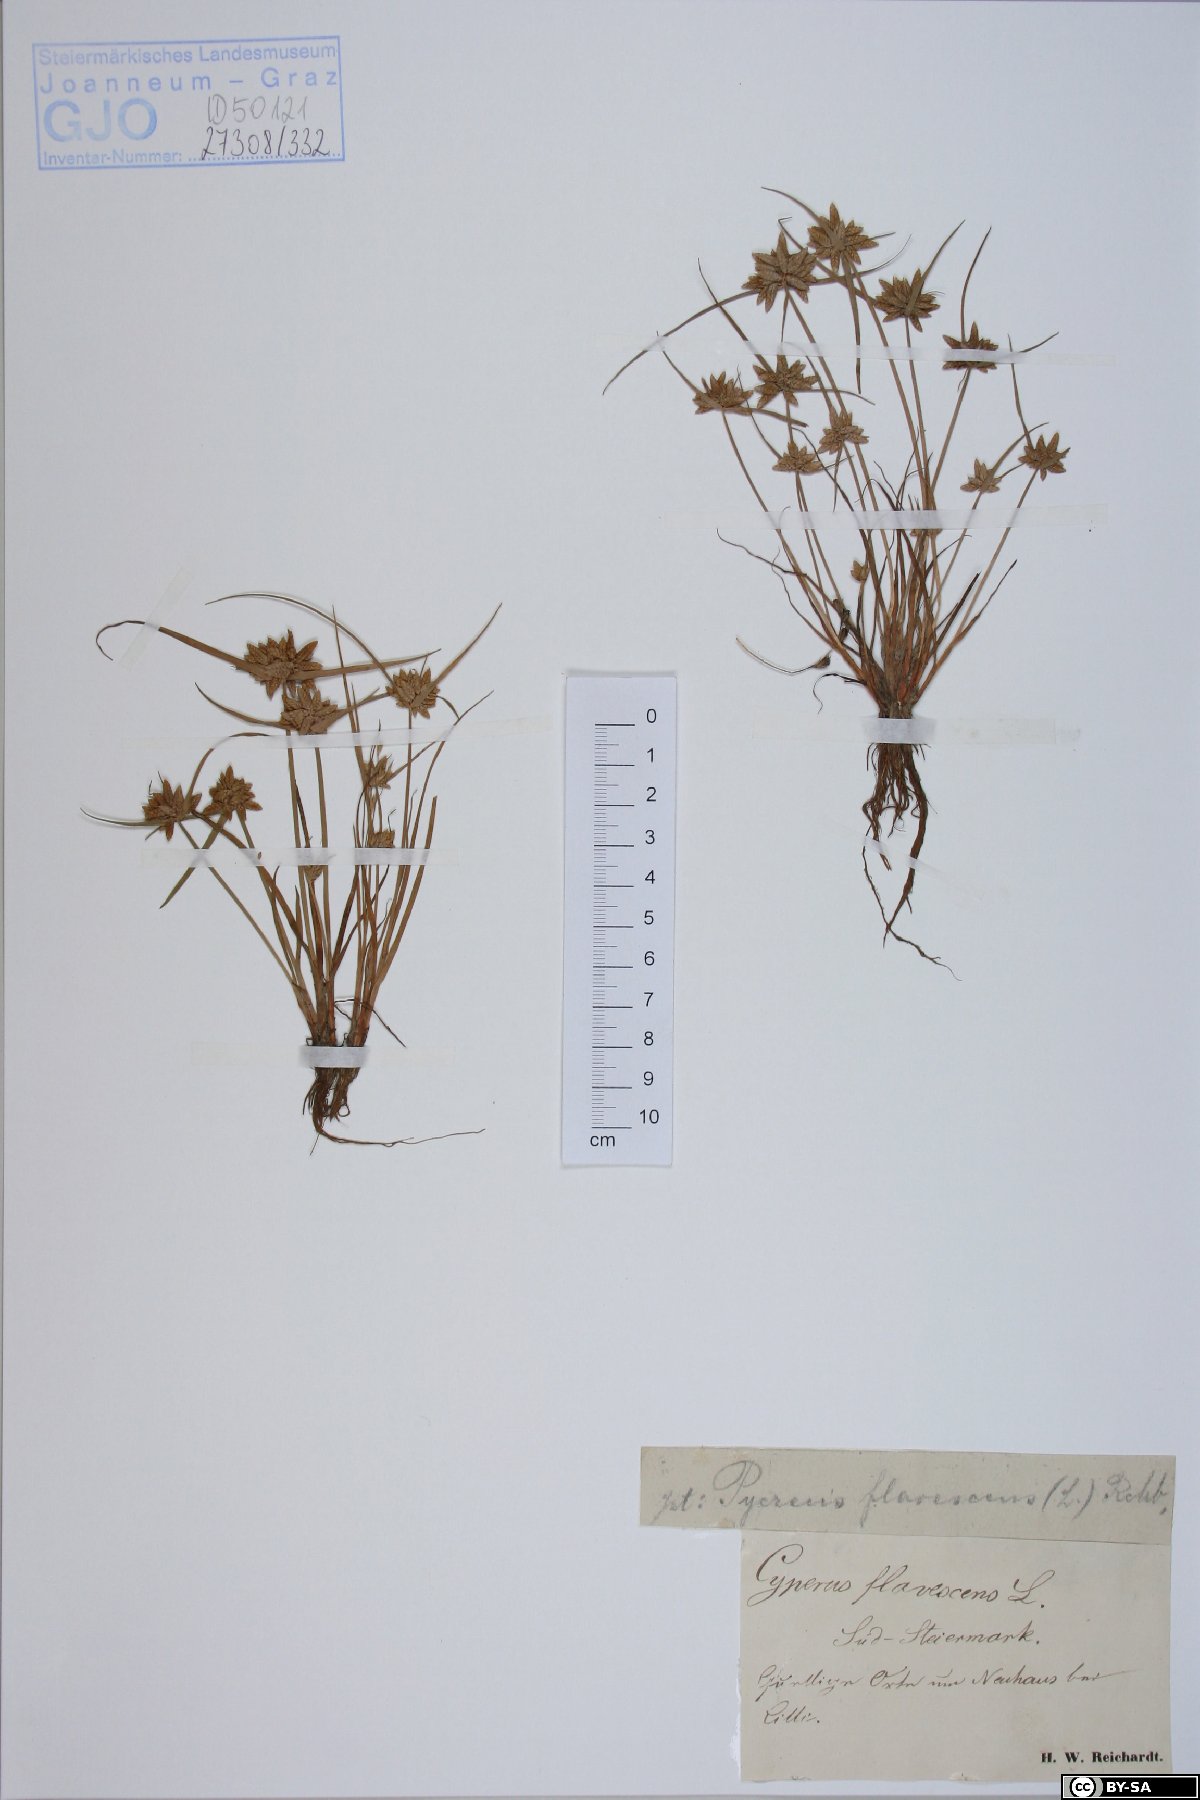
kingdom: Plantae
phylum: Tracheophyta
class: Liliopsida
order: Poales
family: Cyperaceae
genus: Cyperus
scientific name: Cyperus flavescens
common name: Yellow galingale
